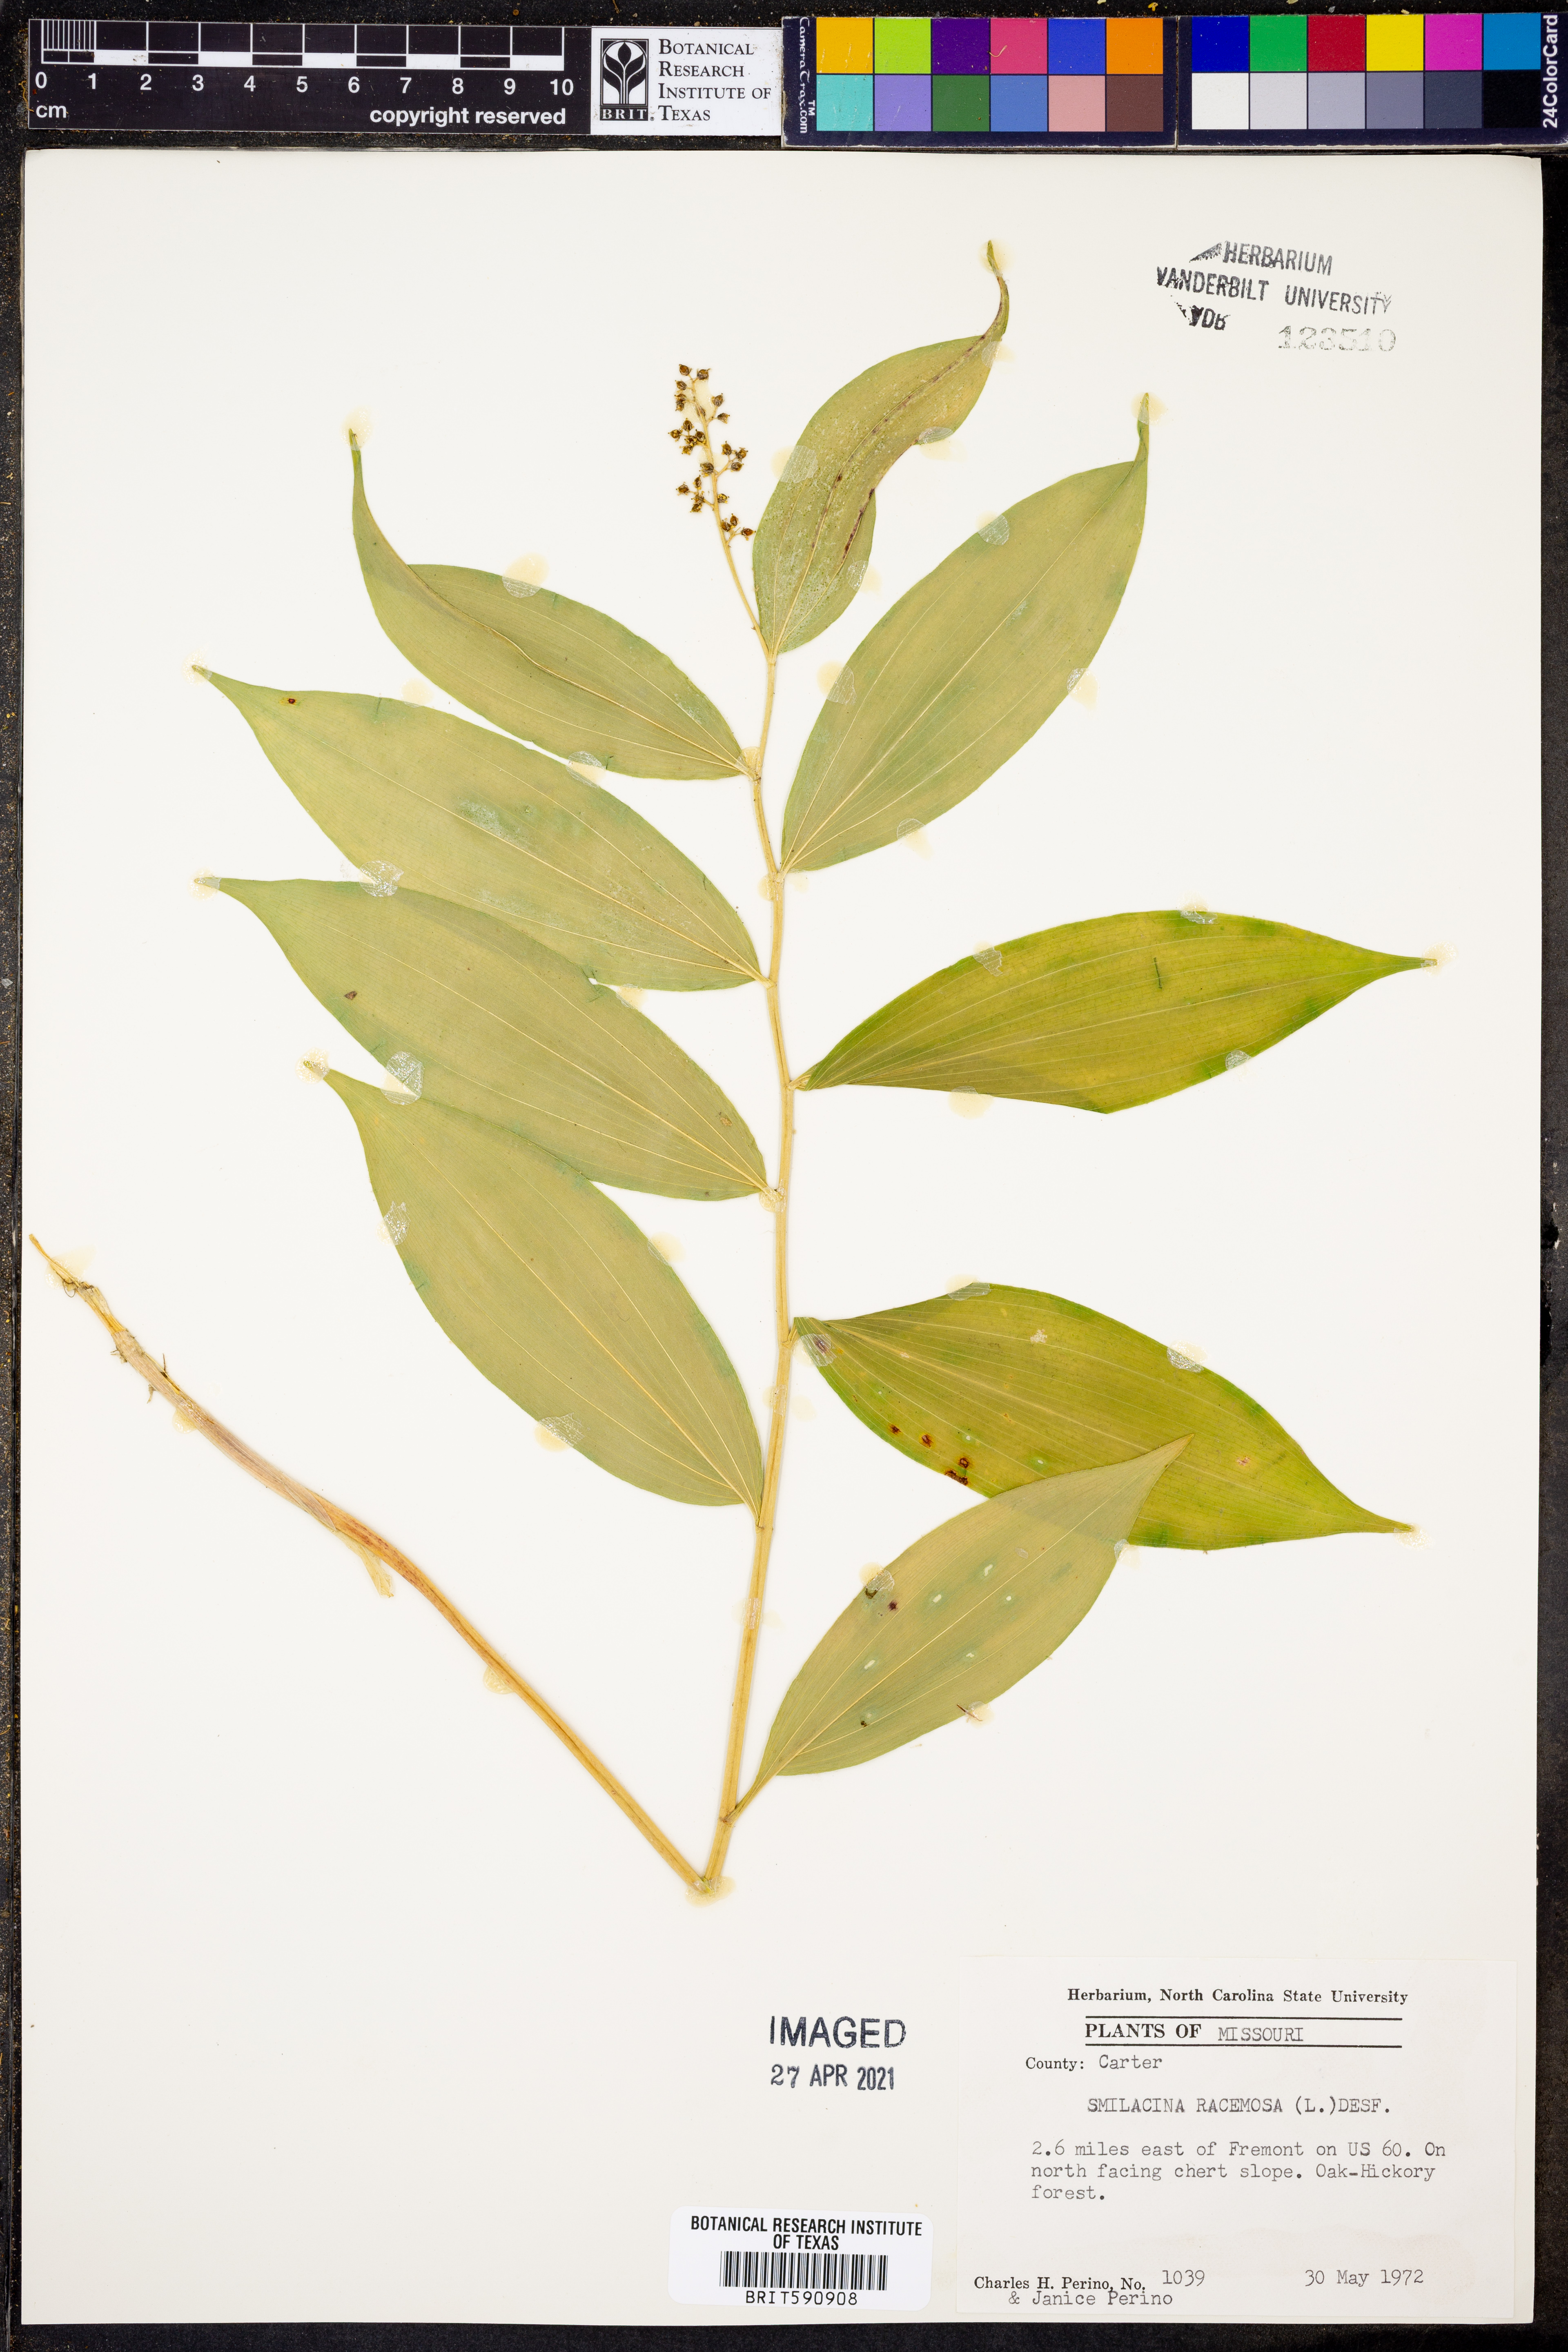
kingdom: Plantae
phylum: Tracheophyta
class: Liliopsida
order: Asparagales
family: Asparagaceae
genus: Maianthemum
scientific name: Maianthemum racemosum
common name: False spikenard
